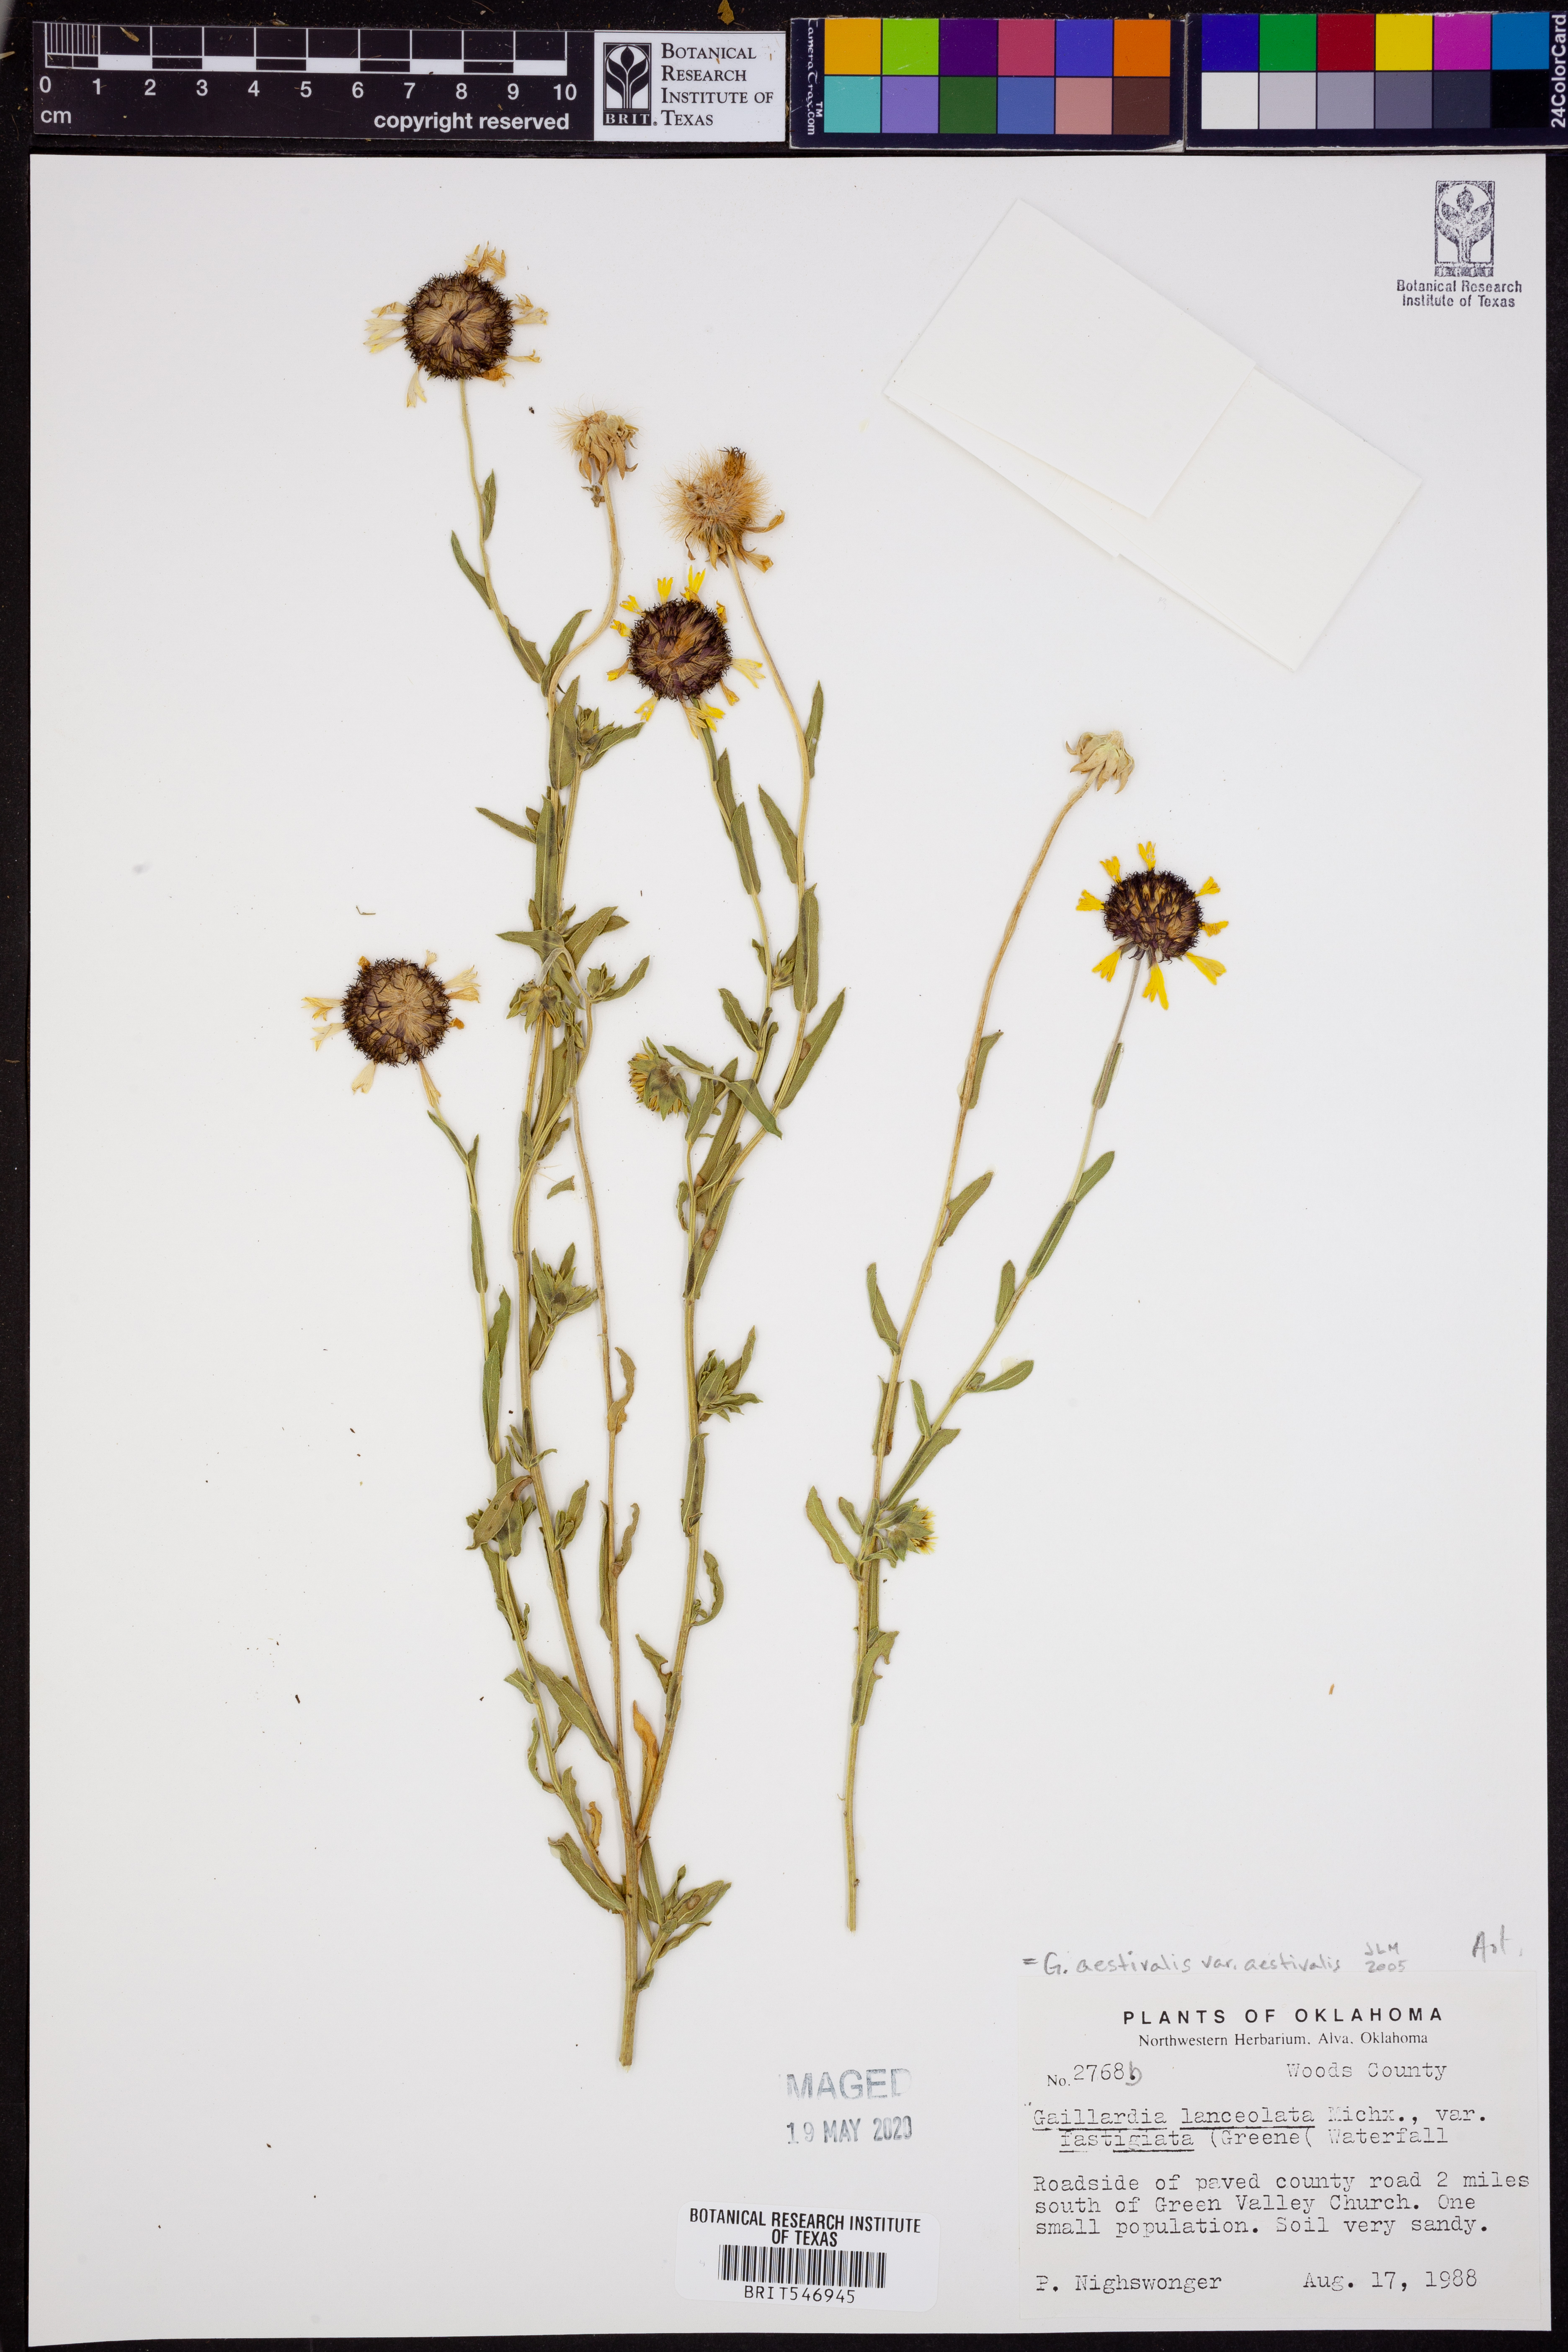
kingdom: Plantae
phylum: Tracheophyta
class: Magnoliopsida
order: Asterales
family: Asteraceae
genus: Gaillardia
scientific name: Gaillardia aestivalis
